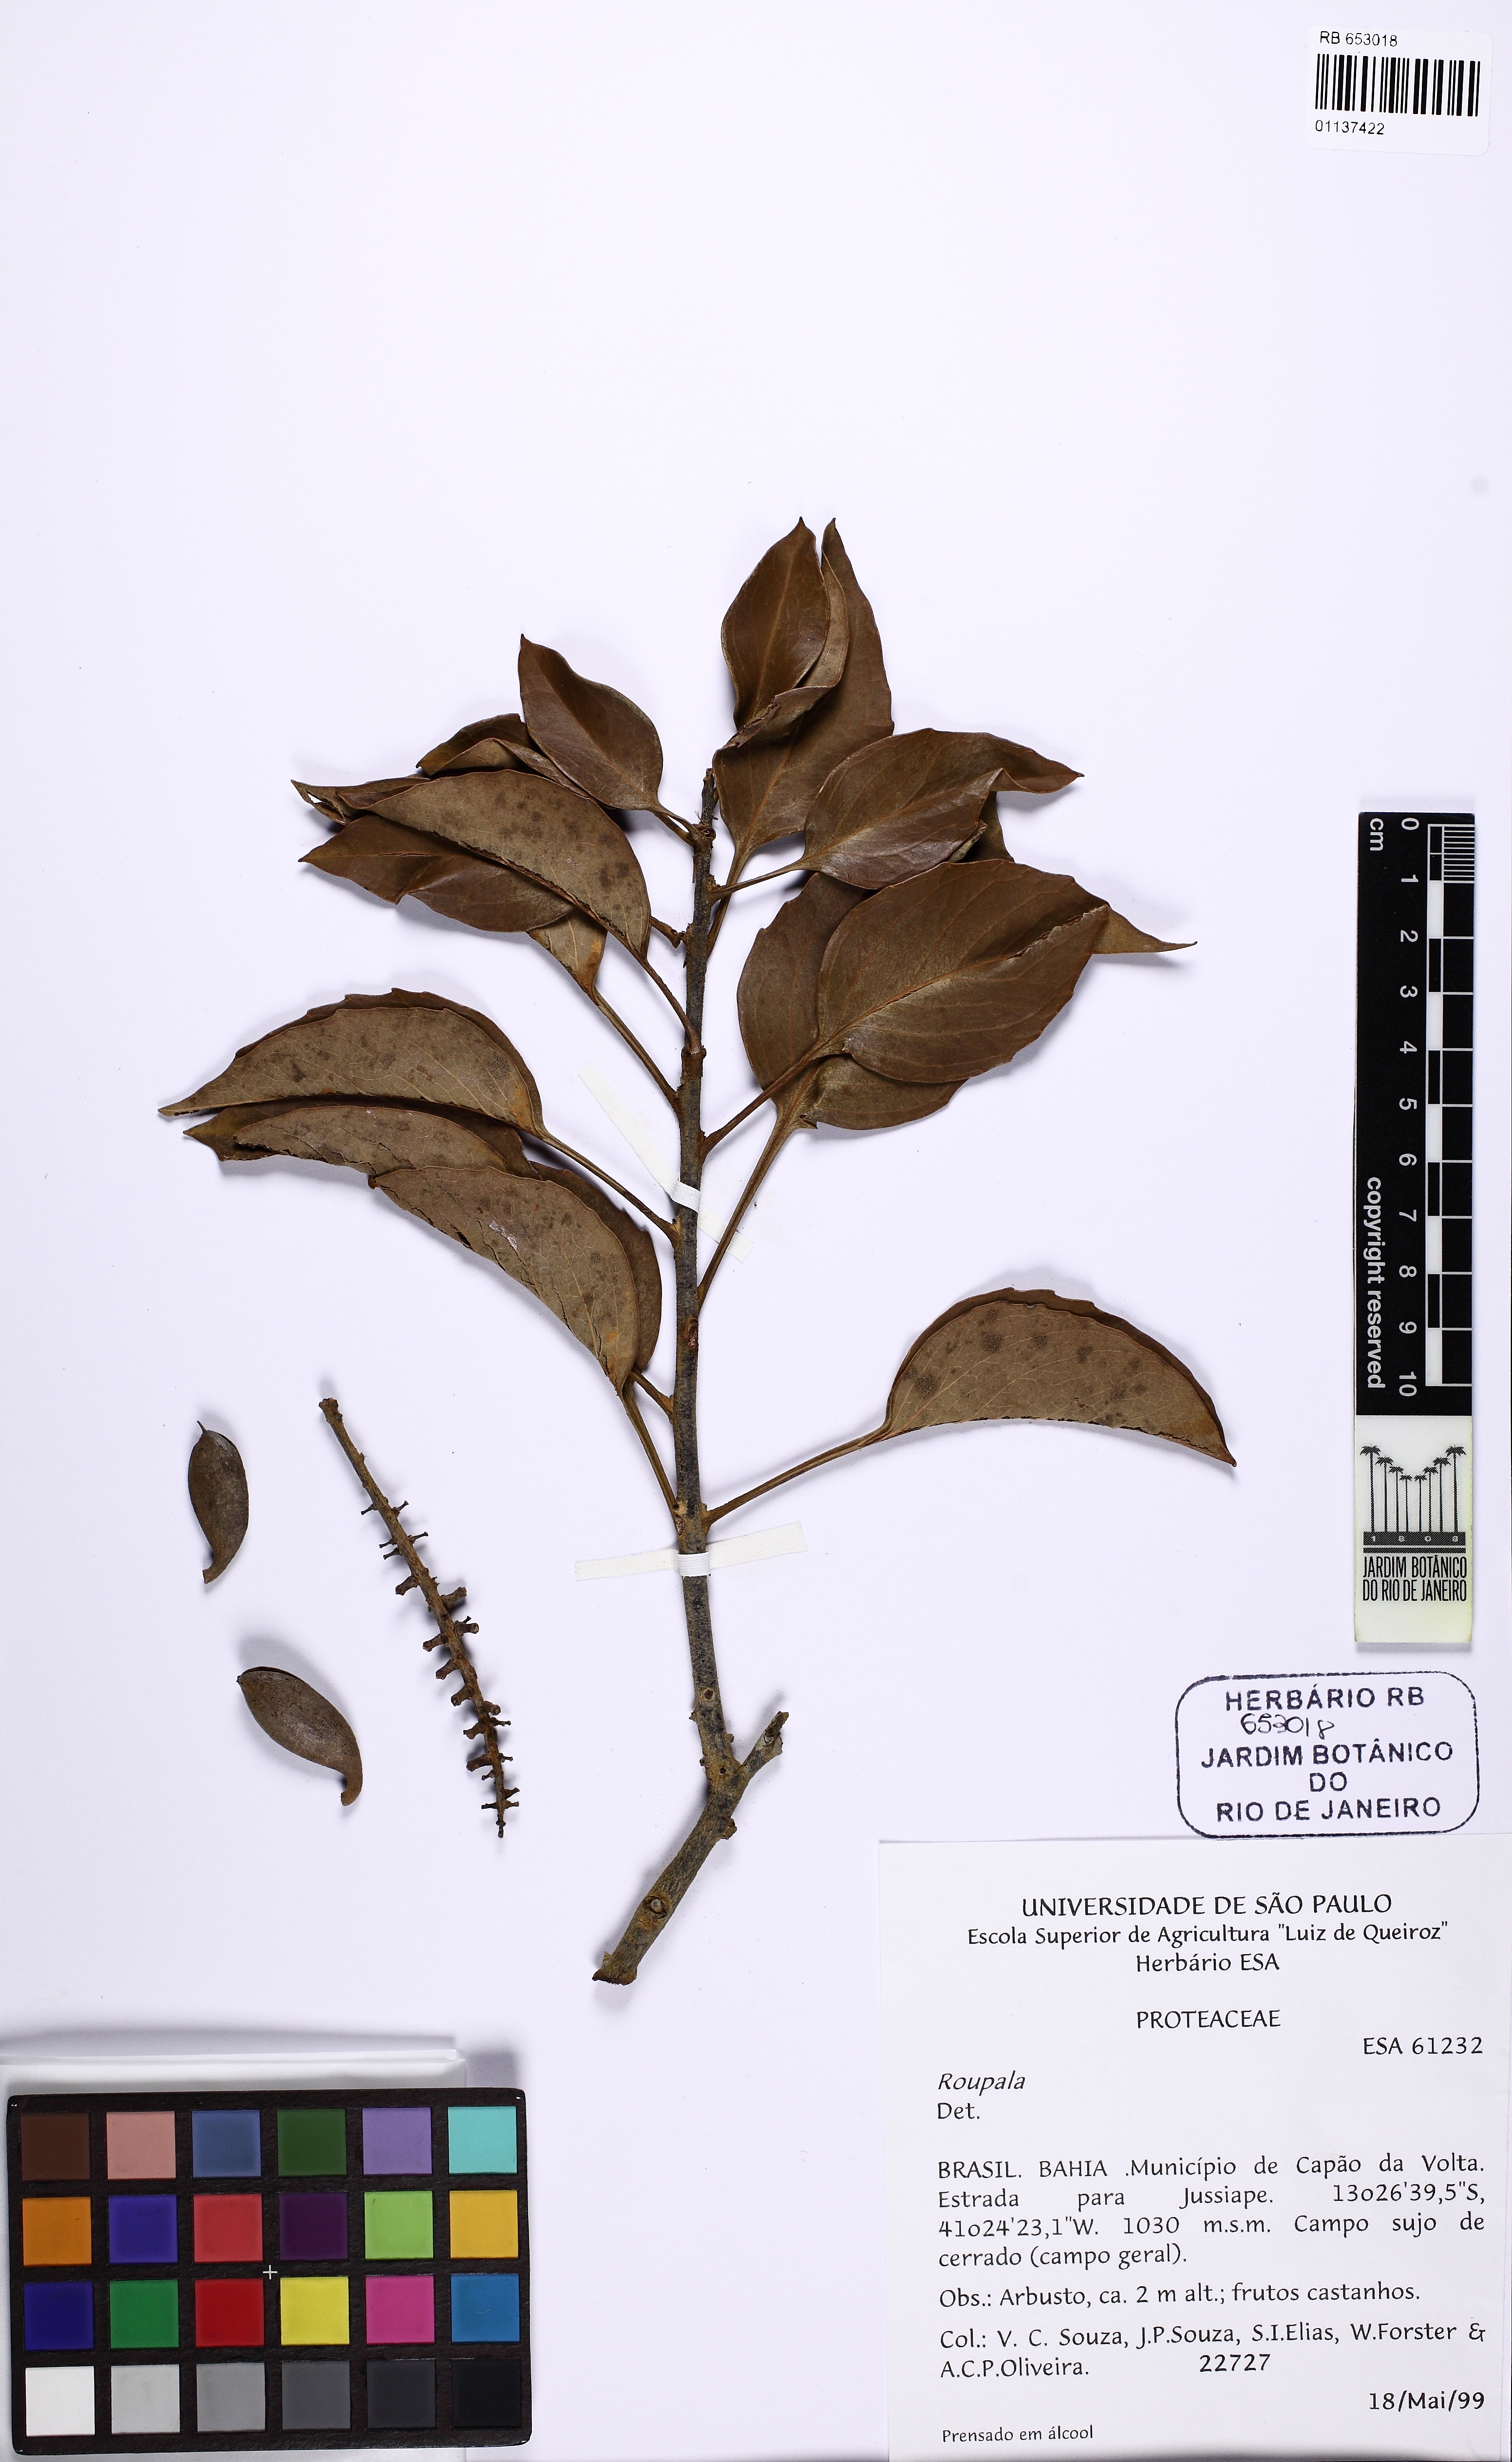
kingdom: Plantae
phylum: Tracheophyta
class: Magnoliopsida
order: Proteales
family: Proteaceae
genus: Roupala
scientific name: Roupala
